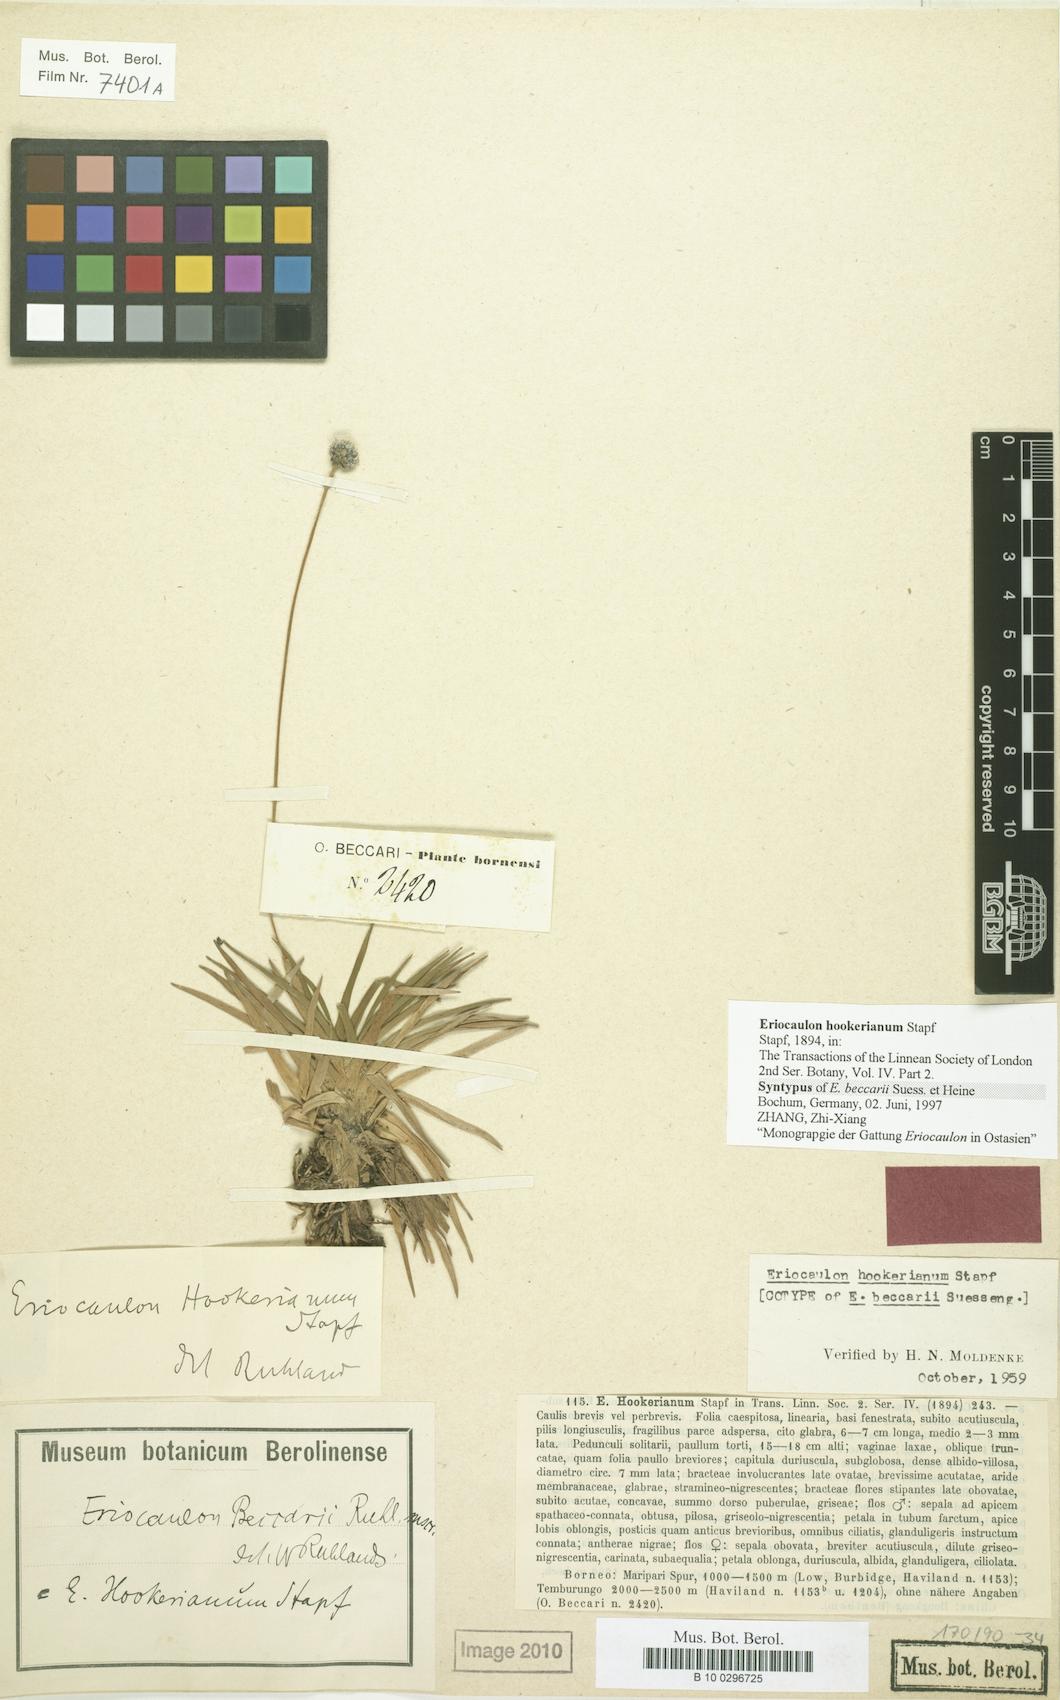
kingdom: Plantae
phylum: Tracheophyta
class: Liliopsida
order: Poales
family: Eriocaulaceae
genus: Eriocaulon
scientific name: Eriocaulon hookerianum
